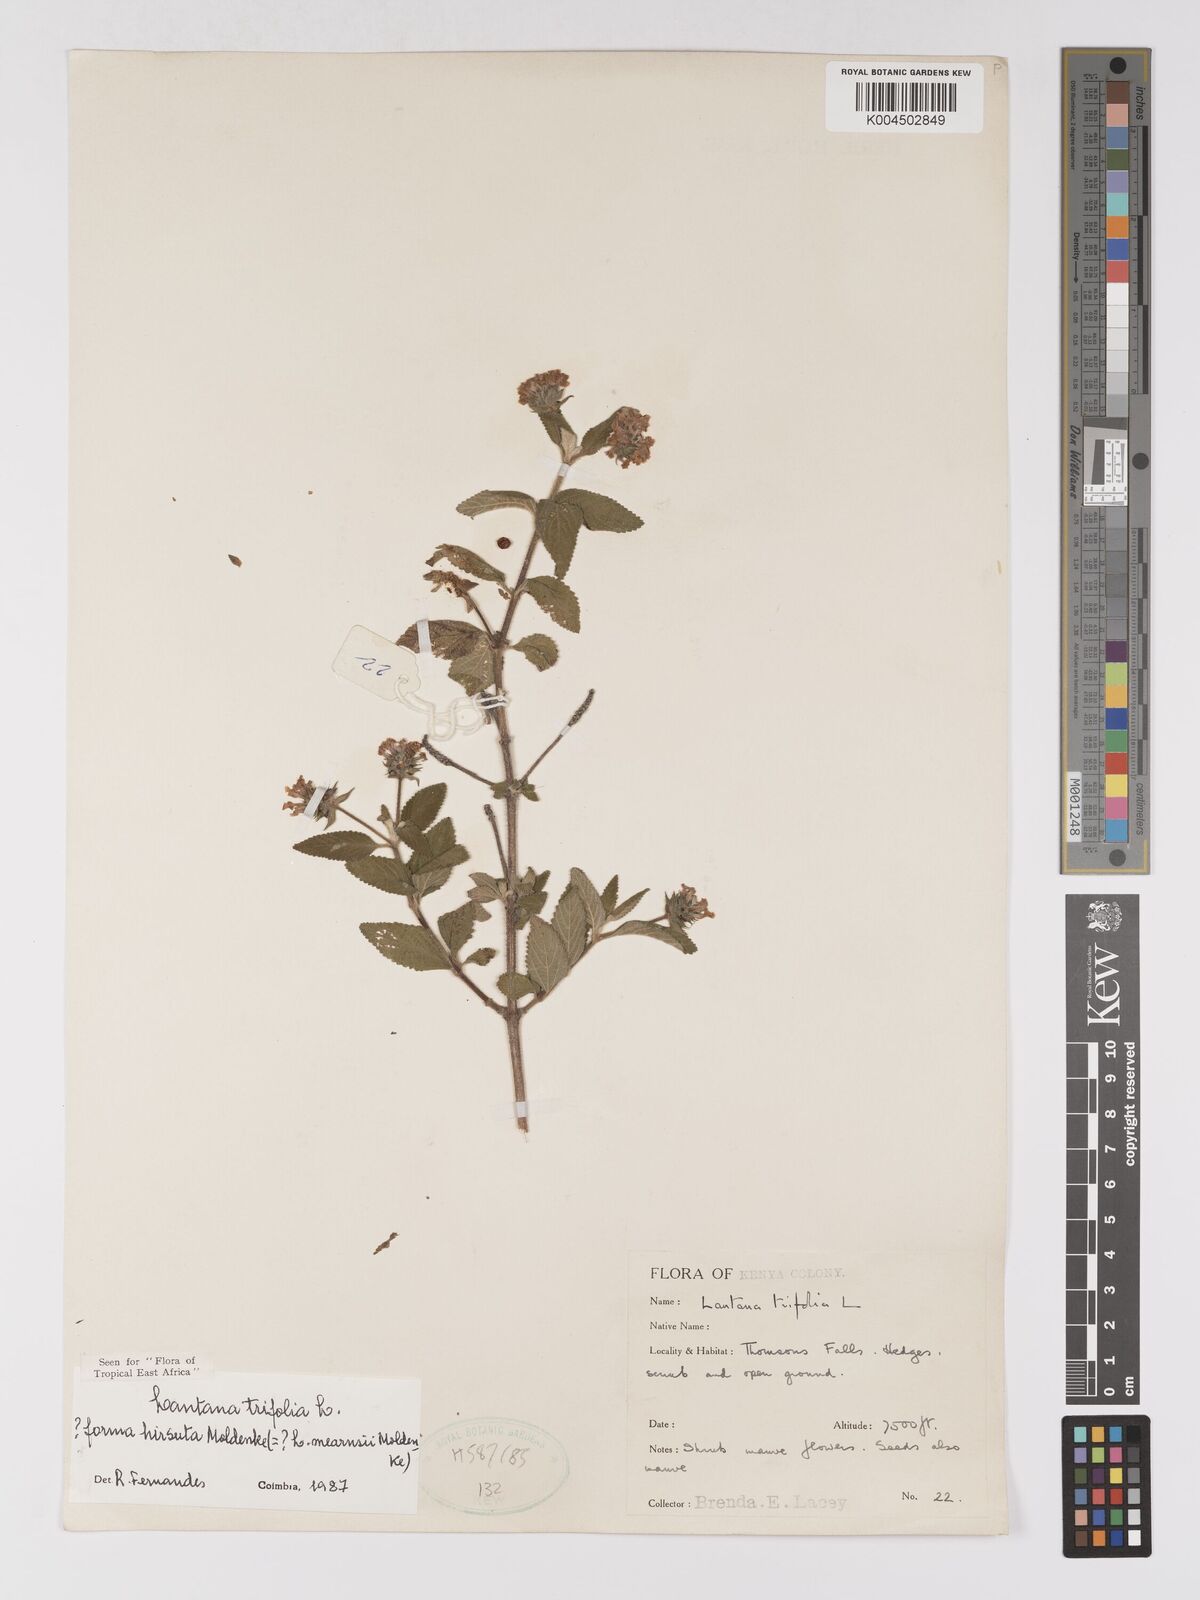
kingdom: Plantae
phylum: Tracheophyta
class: Magnoliopsida
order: Lamiales
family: Verbenaceae
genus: Lantana
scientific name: Lantana trifolia
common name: Sweet-sage
